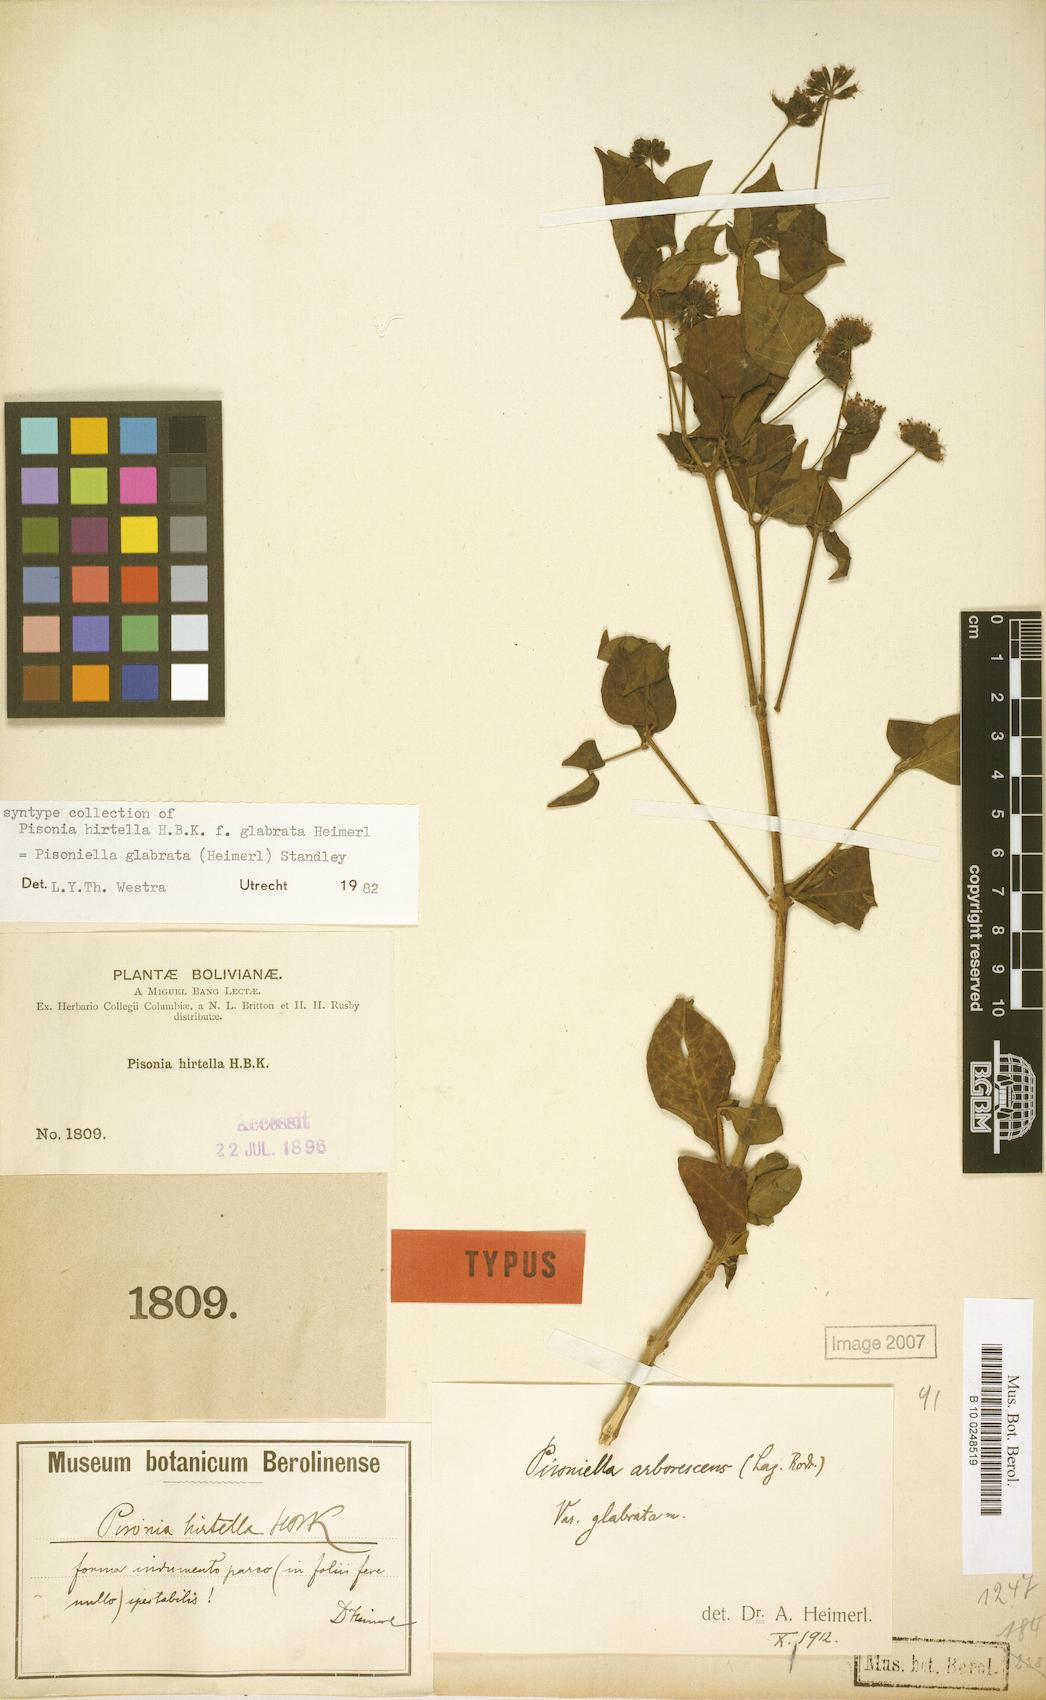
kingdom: Plantae
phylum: Tracheophyta
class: Magnoliopsida
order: Caryophyllales
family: Nyctaginaceae
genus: Pisoniella
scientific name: Pisoniella glabrata
